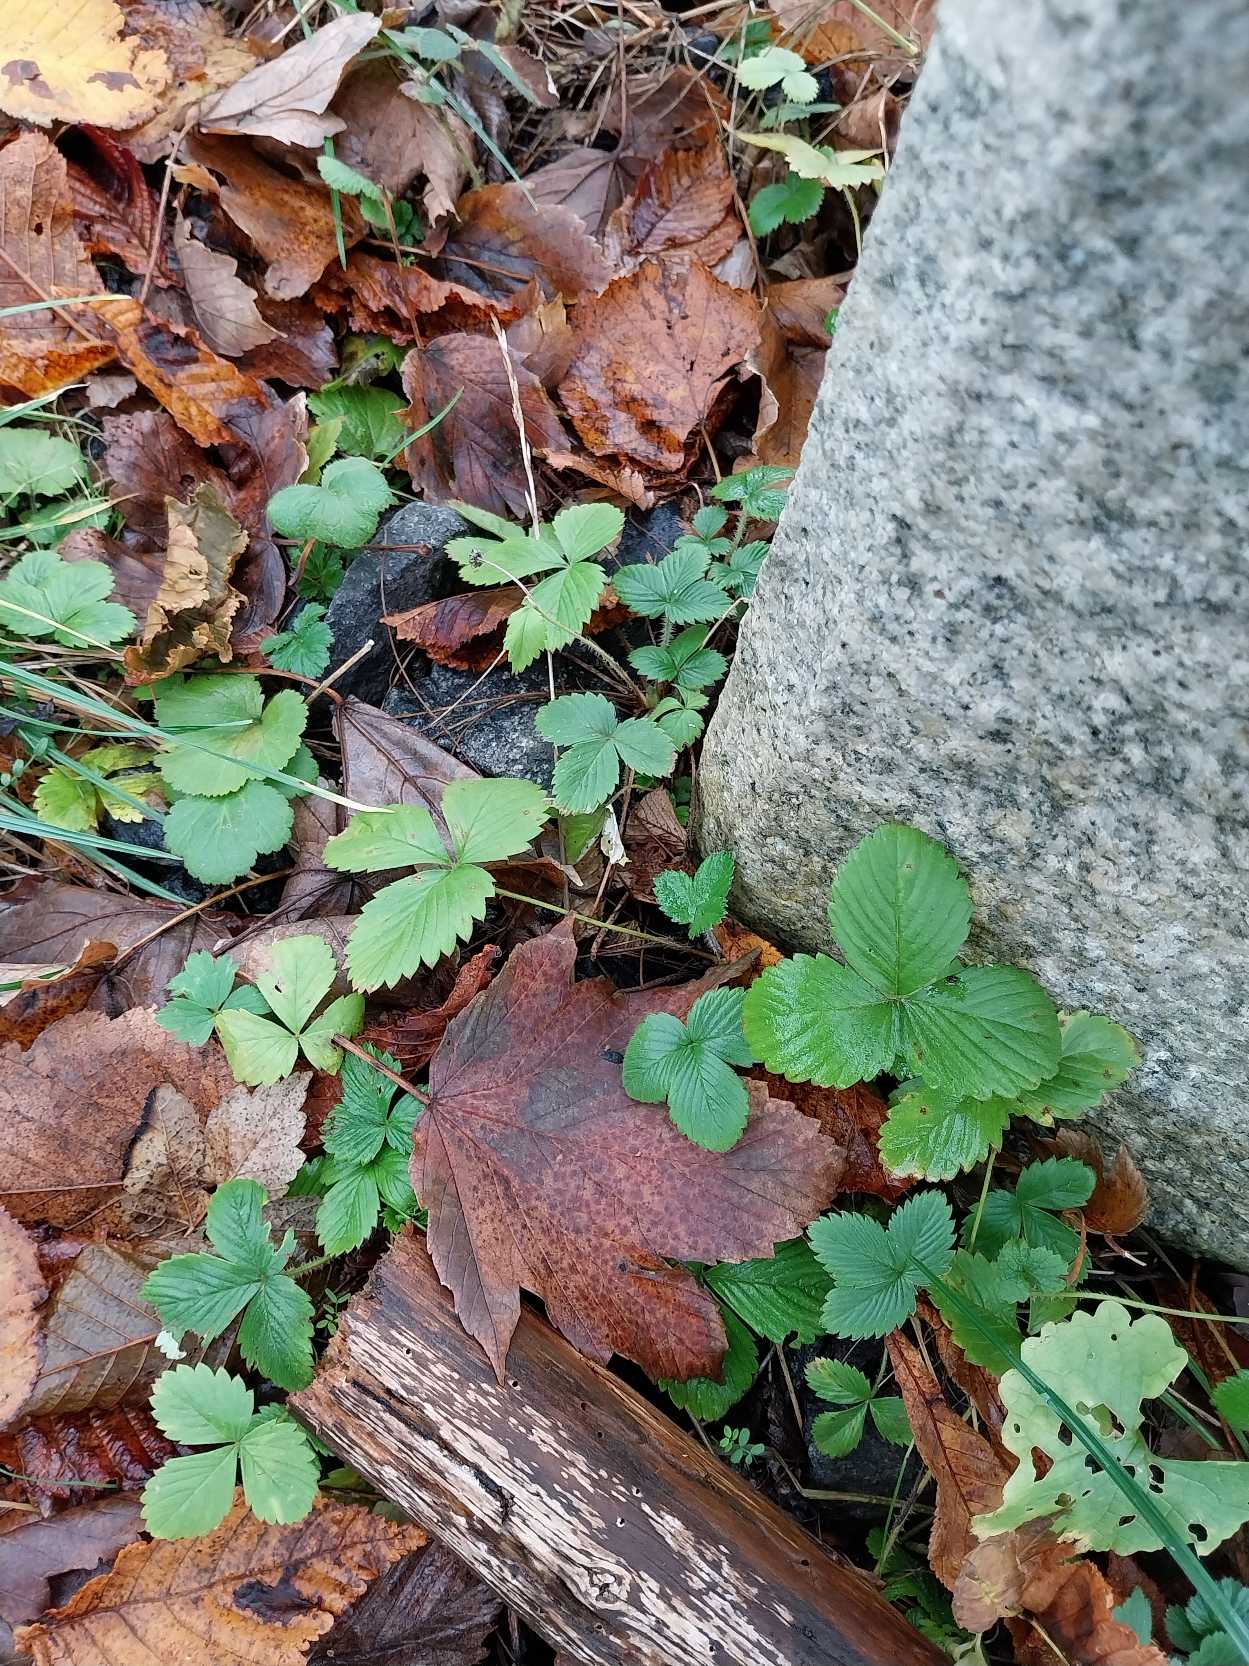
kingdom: Plantae
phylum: Tracheophyta
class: Magnoliopsida
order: Rosales
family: Rosaceae
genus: Fragaria
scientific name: Fragaria vesca
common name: Skov-jordbær
